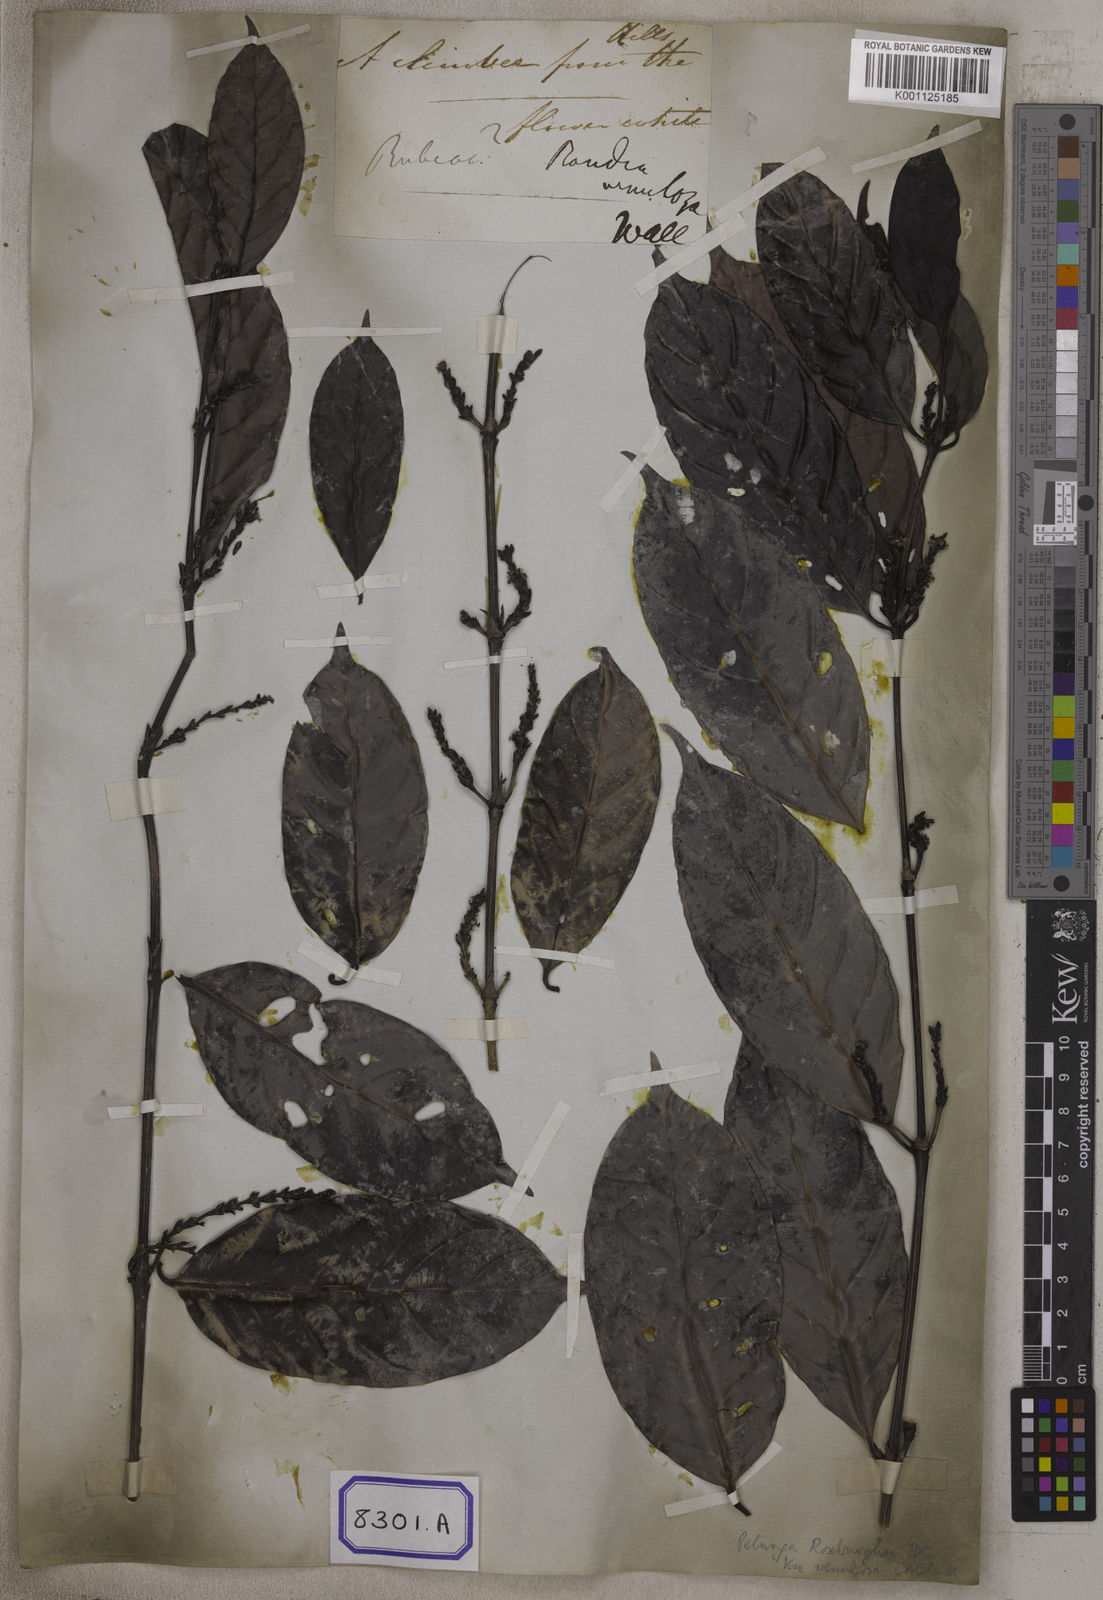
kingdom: Plantae
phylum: Tracheophyta
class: Magnoliopsida
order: Gentianales
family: Rubiaceae
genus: Hypobathrum
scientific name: Hypobathrum venulosum
